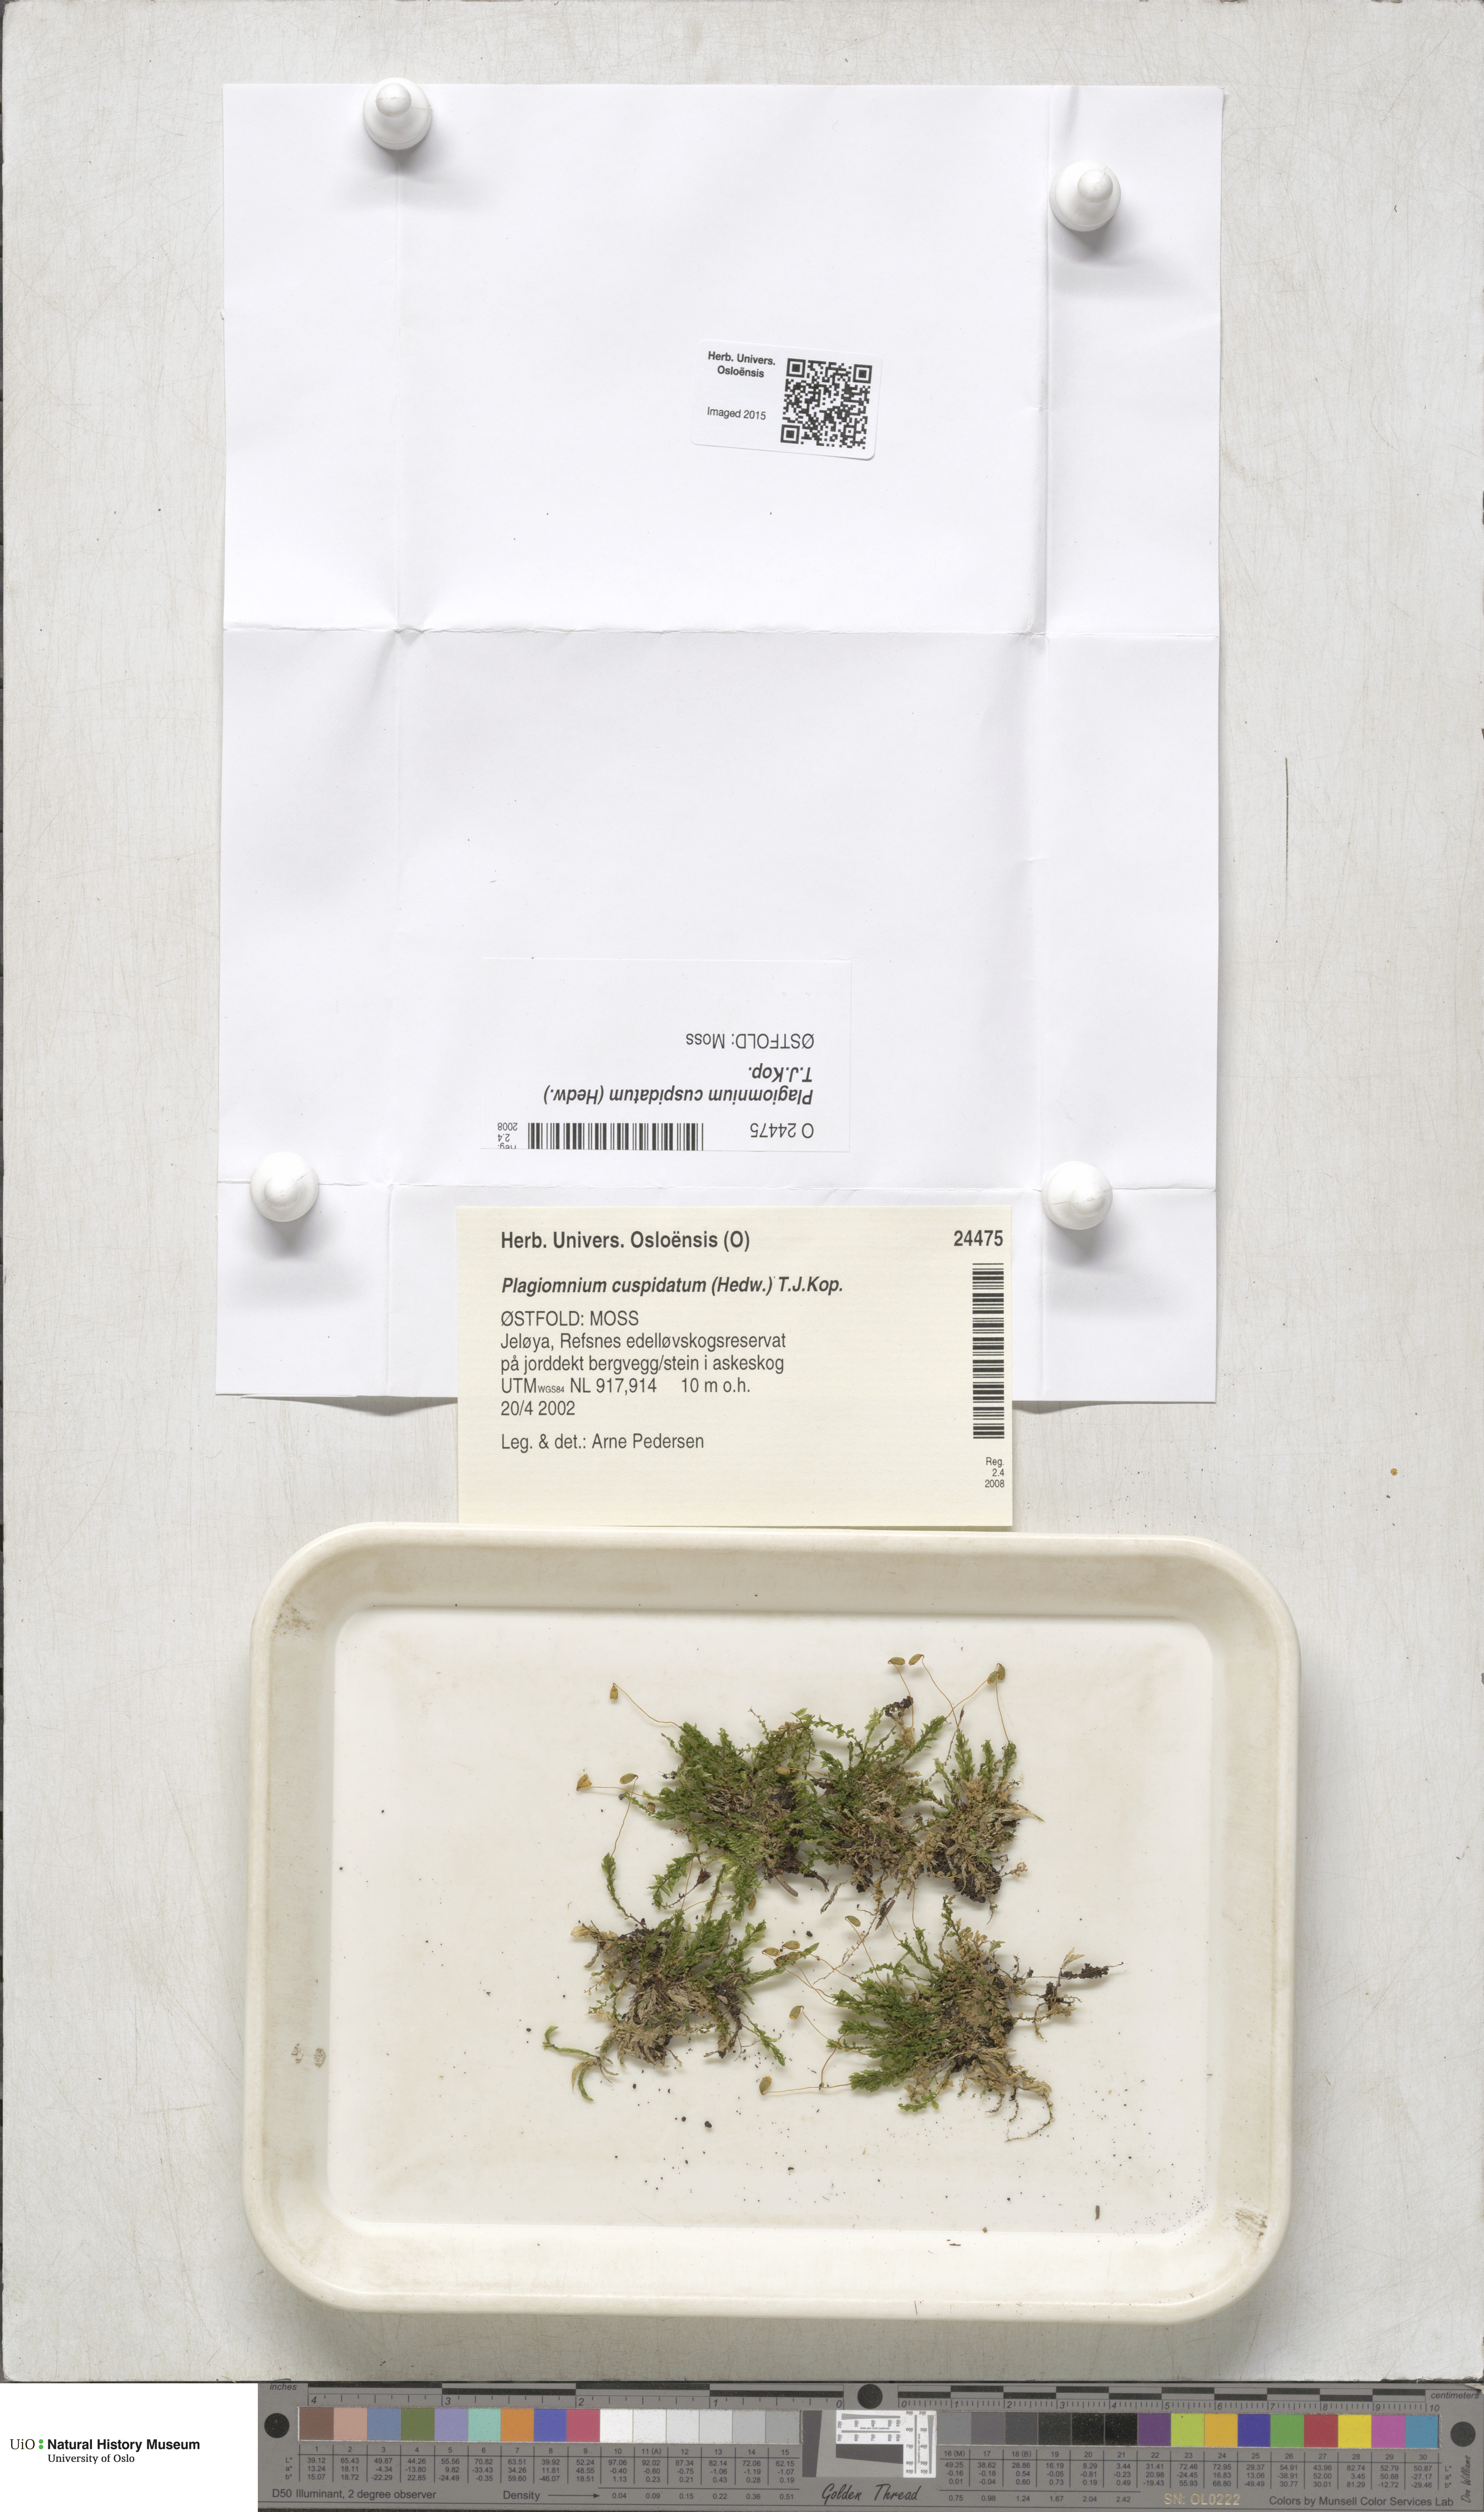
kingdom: Plantae
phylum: Bryophyta
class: Bryopsida
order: Bryales
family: Mniaceae
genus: Plagiomnium
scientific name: Plagiomnium cuspidatum
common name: Woodsy leafy moss
